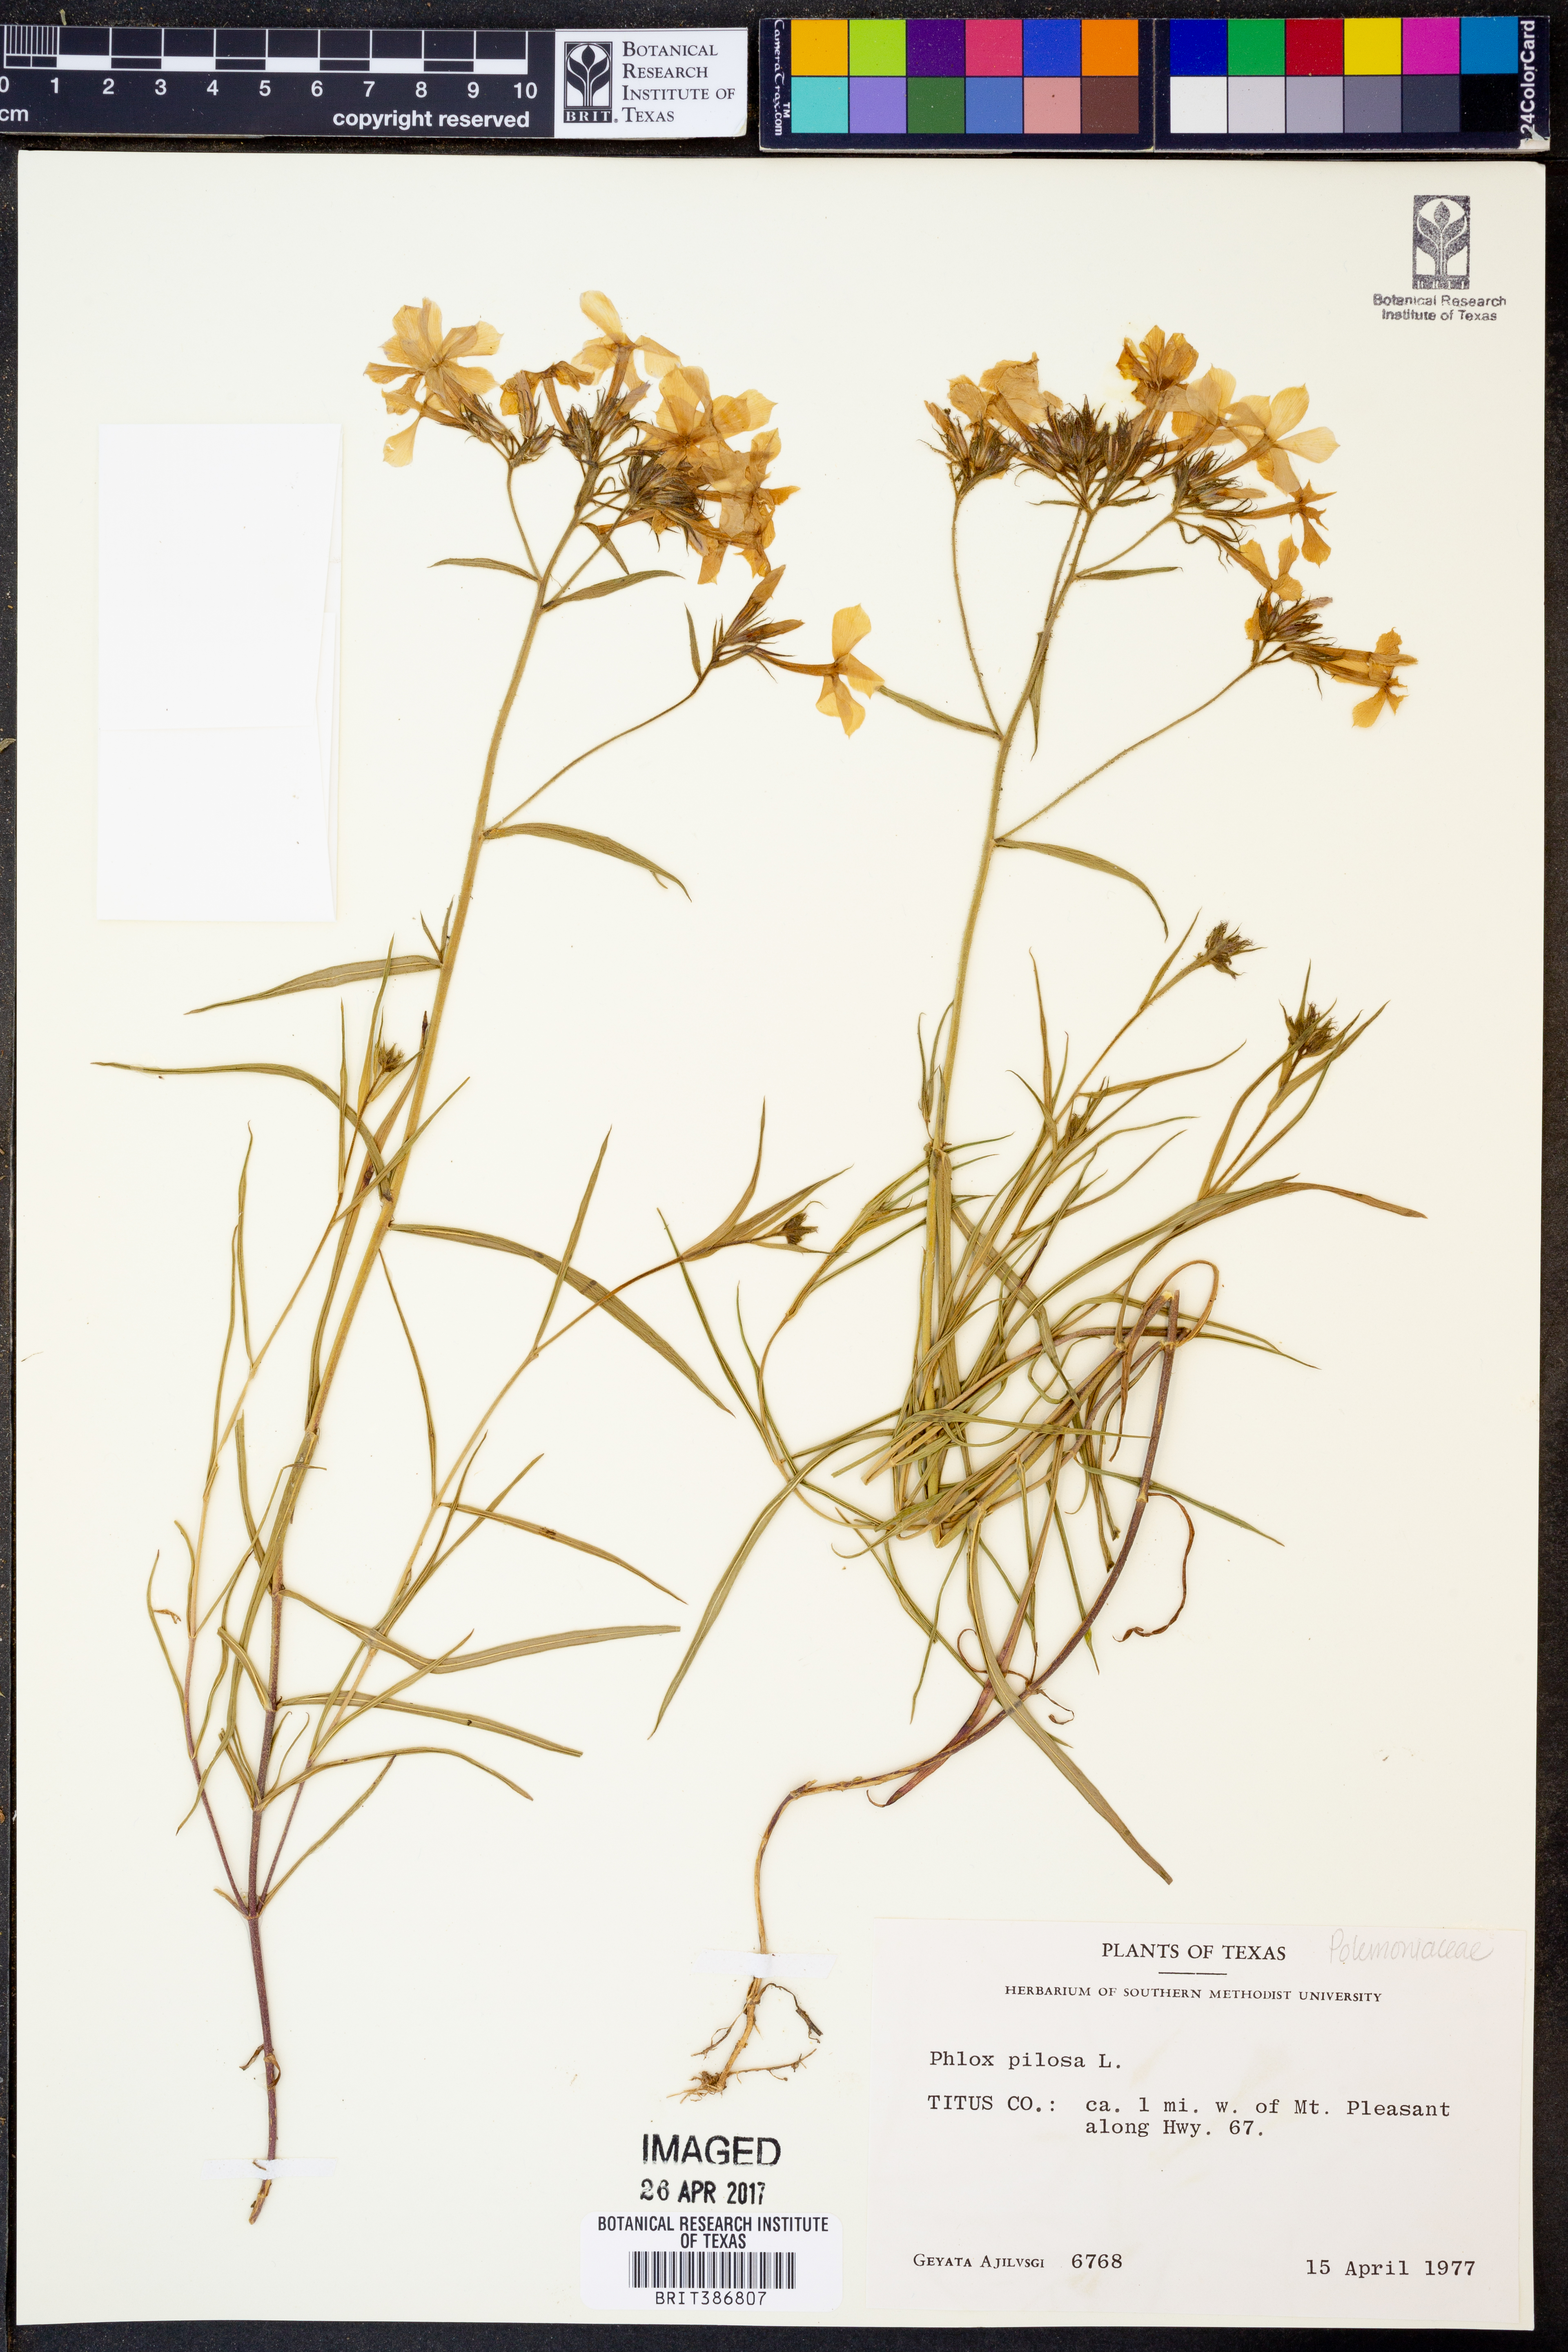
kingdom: Plantae
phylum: Tracheophyta
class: Magnoliopsida
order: Ericales
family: Polemoniaceae
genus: Phlox
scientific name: Phlox pilosa
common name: Prairie phlox
